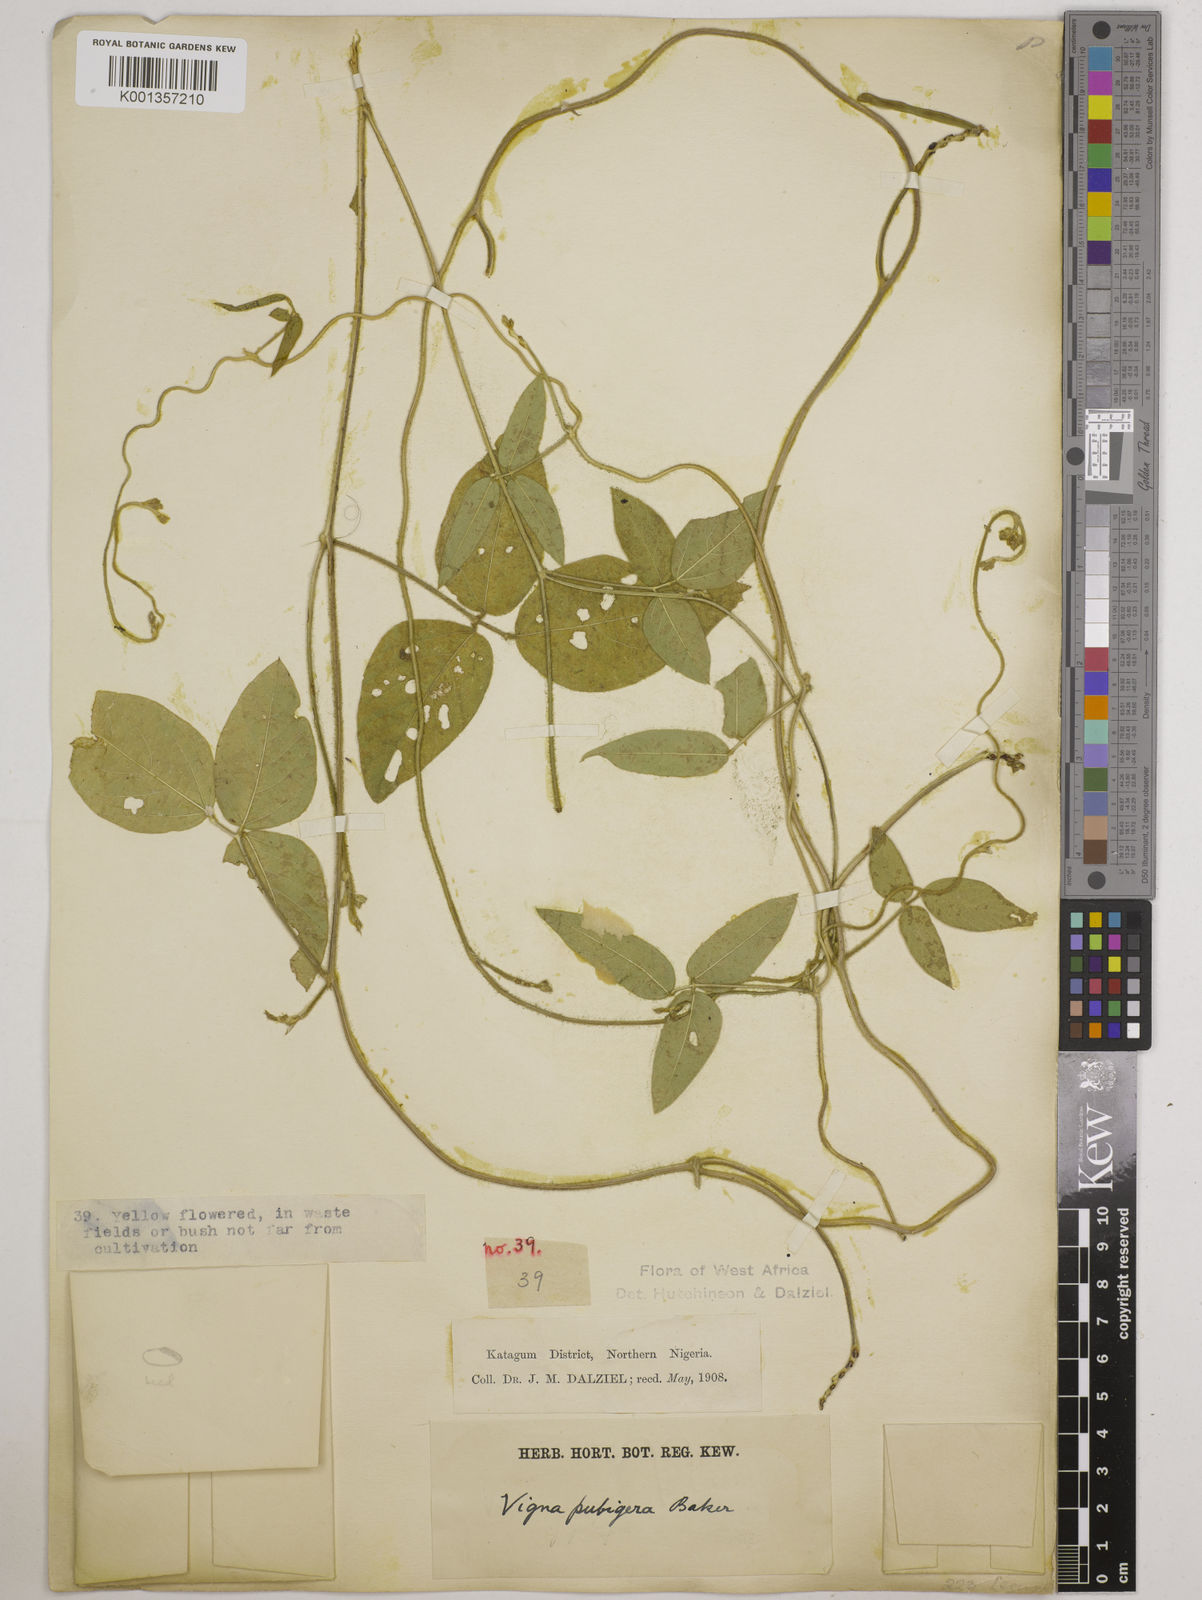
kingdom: Plantae
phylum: Tracheophyta
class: Magnoliopsida
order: Fabales
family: Fabaceae
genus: Vigna
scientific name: Vigna ambacensis
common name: Tsarkiyan zomo
